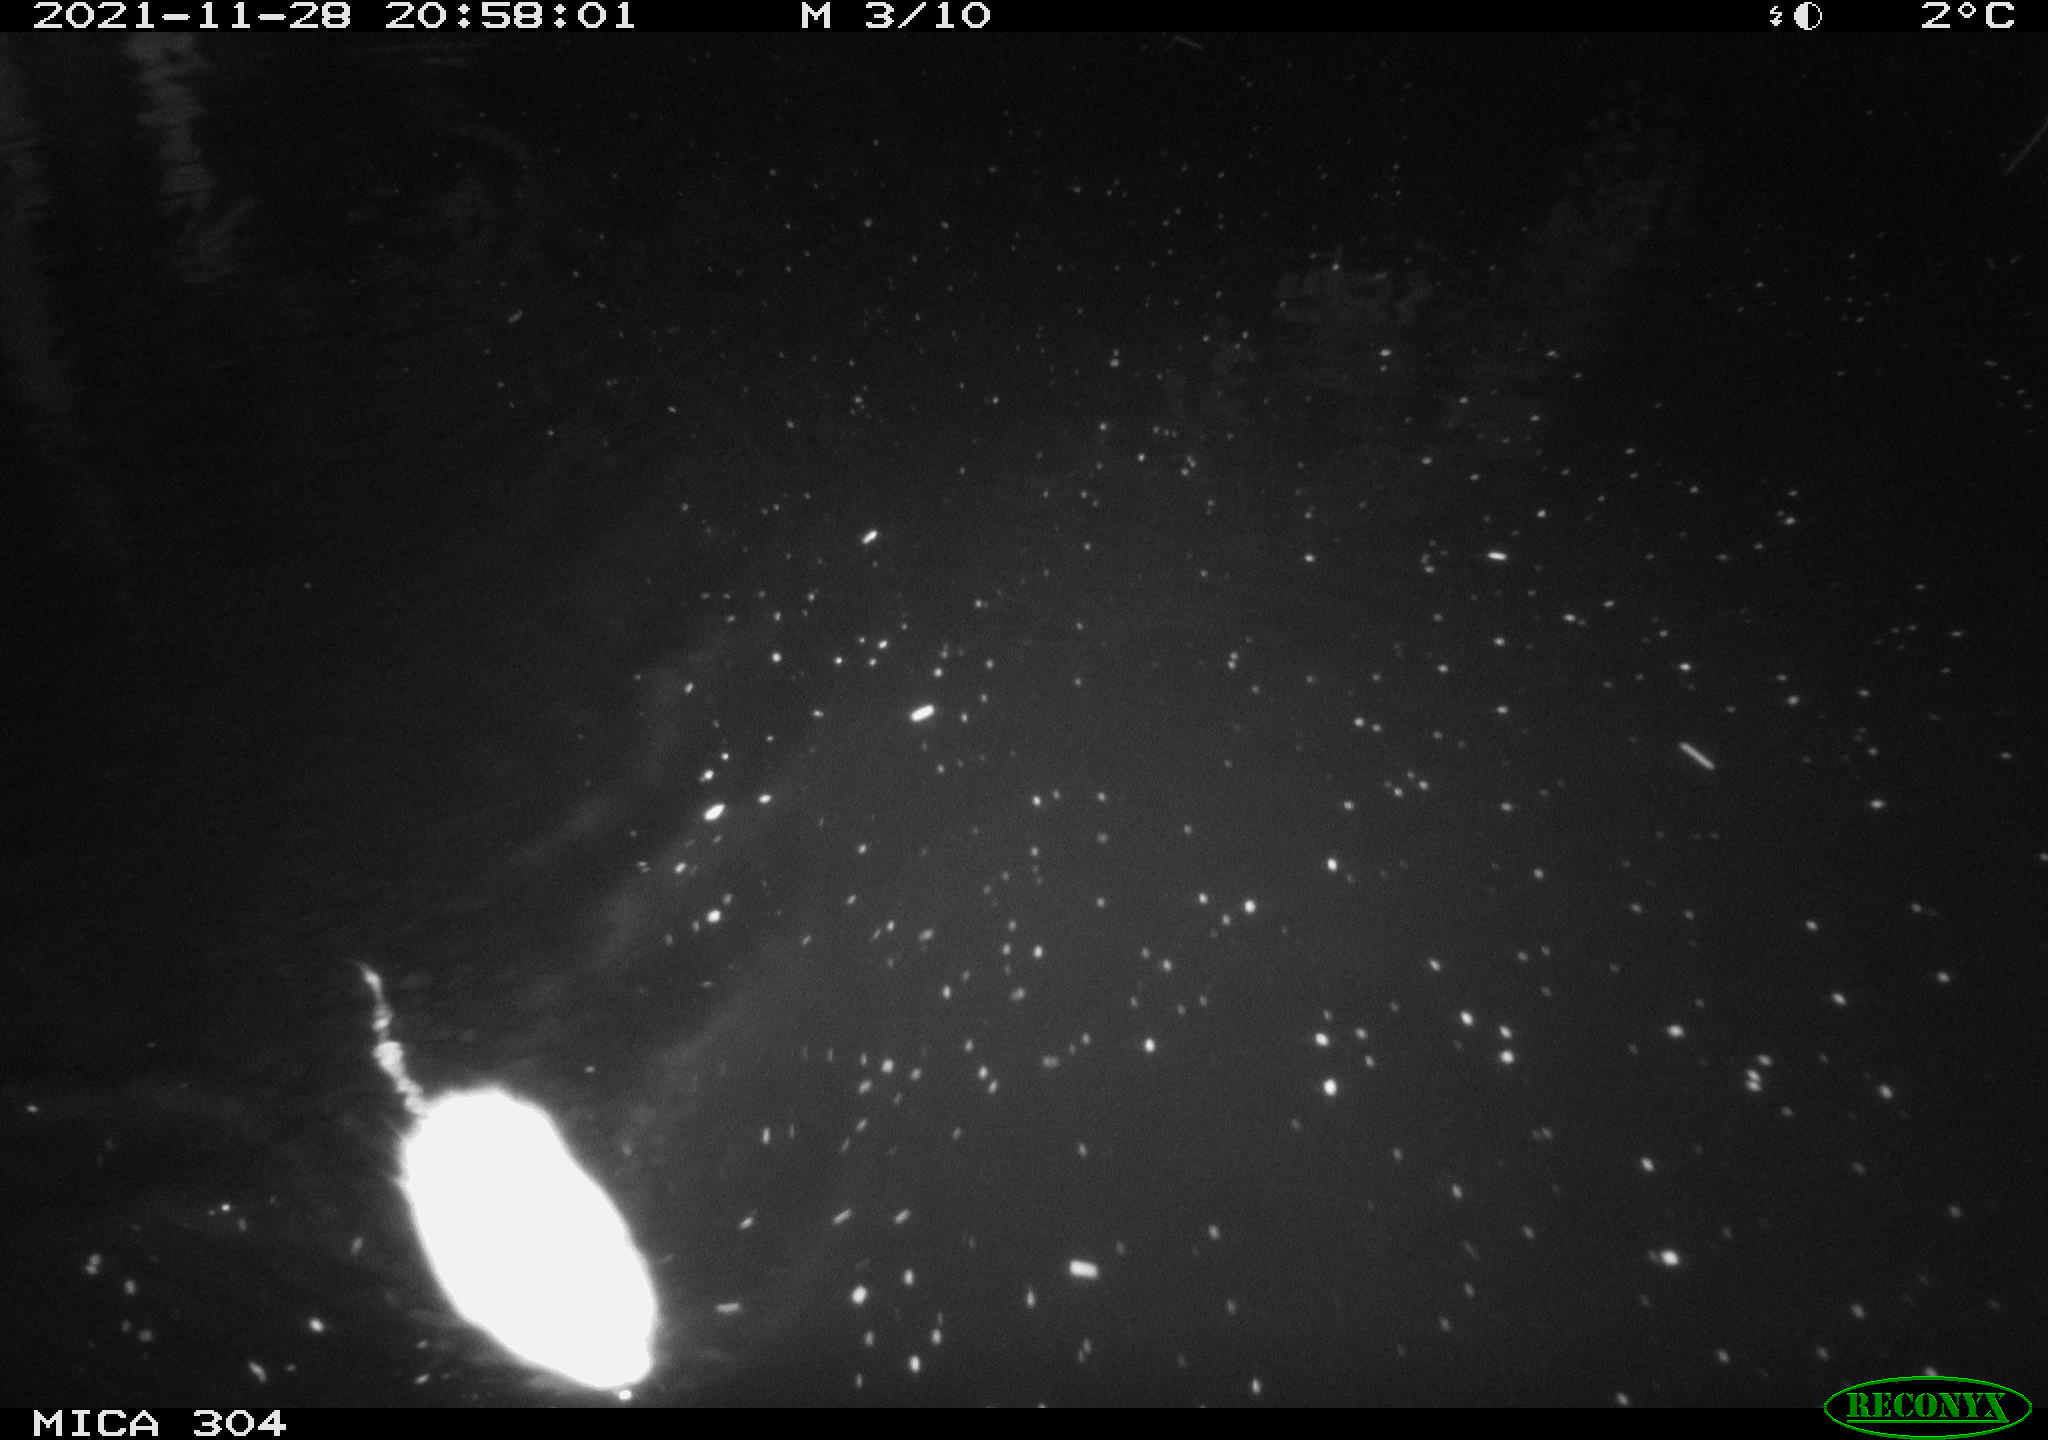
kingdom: Animalia
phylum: Chordata
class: Mammalia
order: Rodentia
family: Muridae
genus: Rattus
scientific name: Rattus norvegicus
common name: Brown rat
